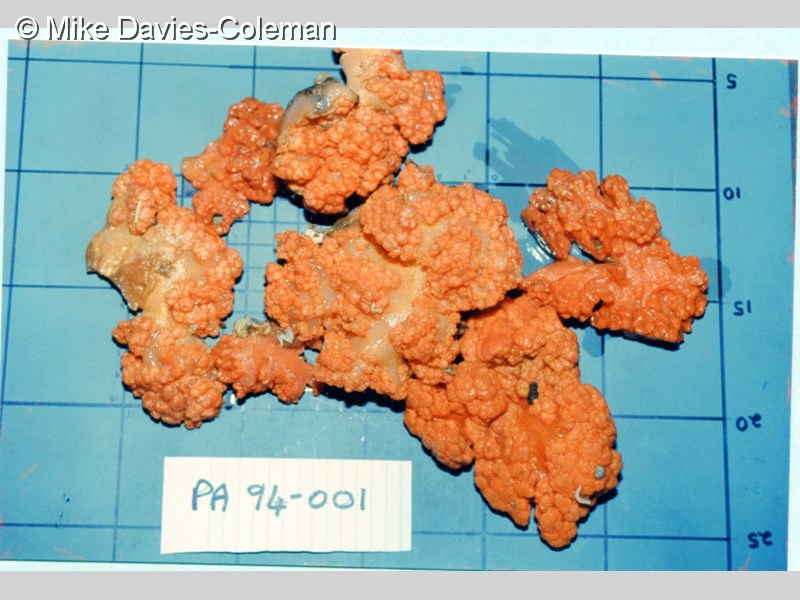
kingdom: Animalia
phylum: Cnidaria
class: Anthozoa
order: Malacalcyonacea
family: Capnellidae
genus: Eunephthya
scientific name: Eunephthya thyrsoidea
